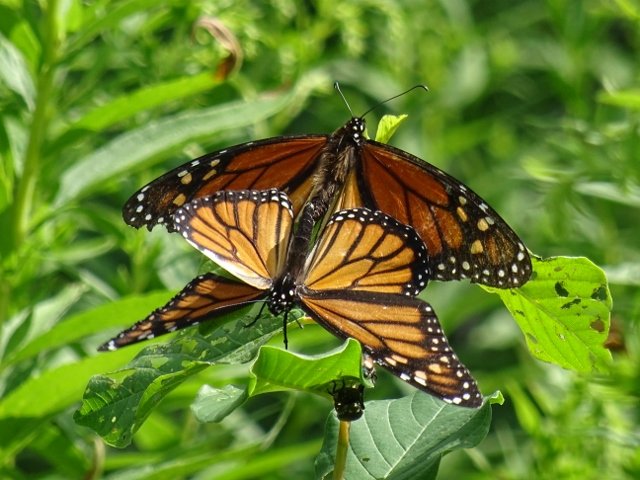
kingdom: Animalia
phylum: Arthropoda
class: Insecta
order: Lepidoptera
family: Nymphalidae
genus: Danaus
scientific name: Danaus plexippus
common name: Monarch
